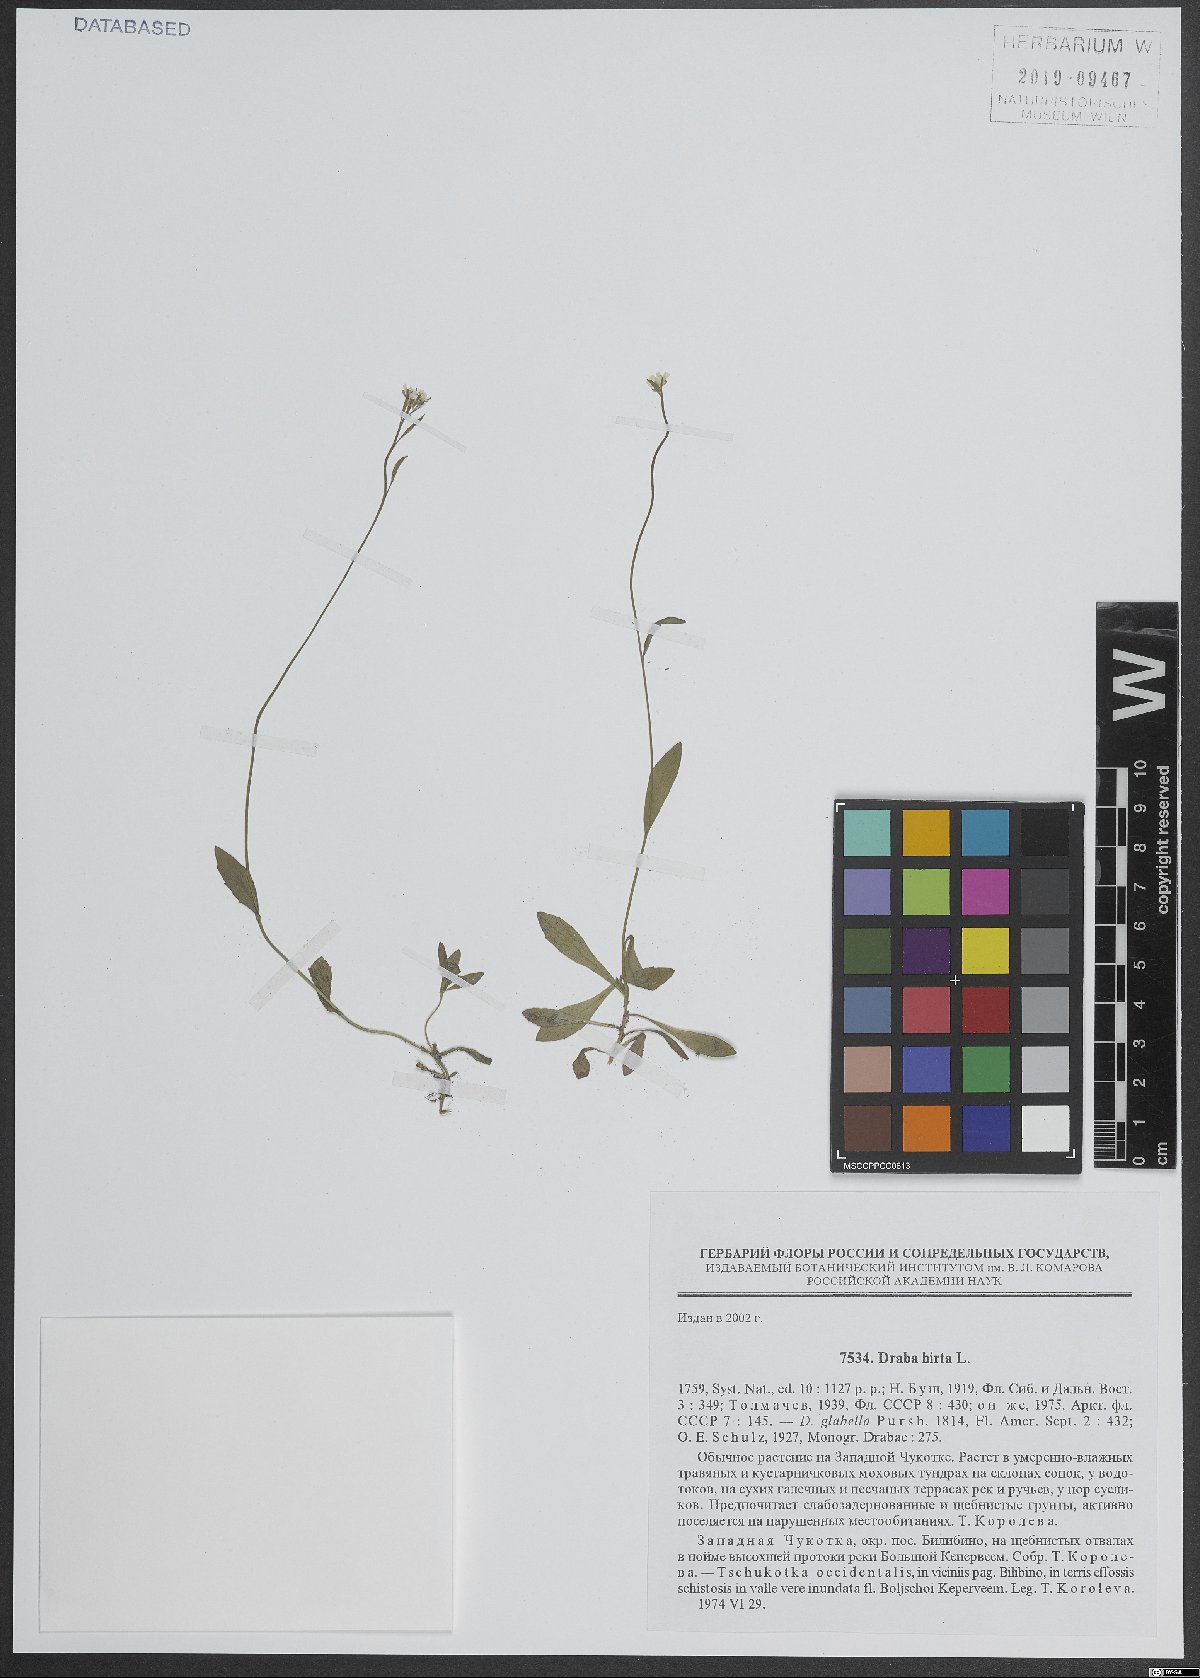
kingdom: Plantae
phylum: Tracheophyta
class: Magnoliopsida
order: Brassicales
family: Brassicaceae
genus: Draba
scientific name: Draba glabella
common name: Glaucous draba
